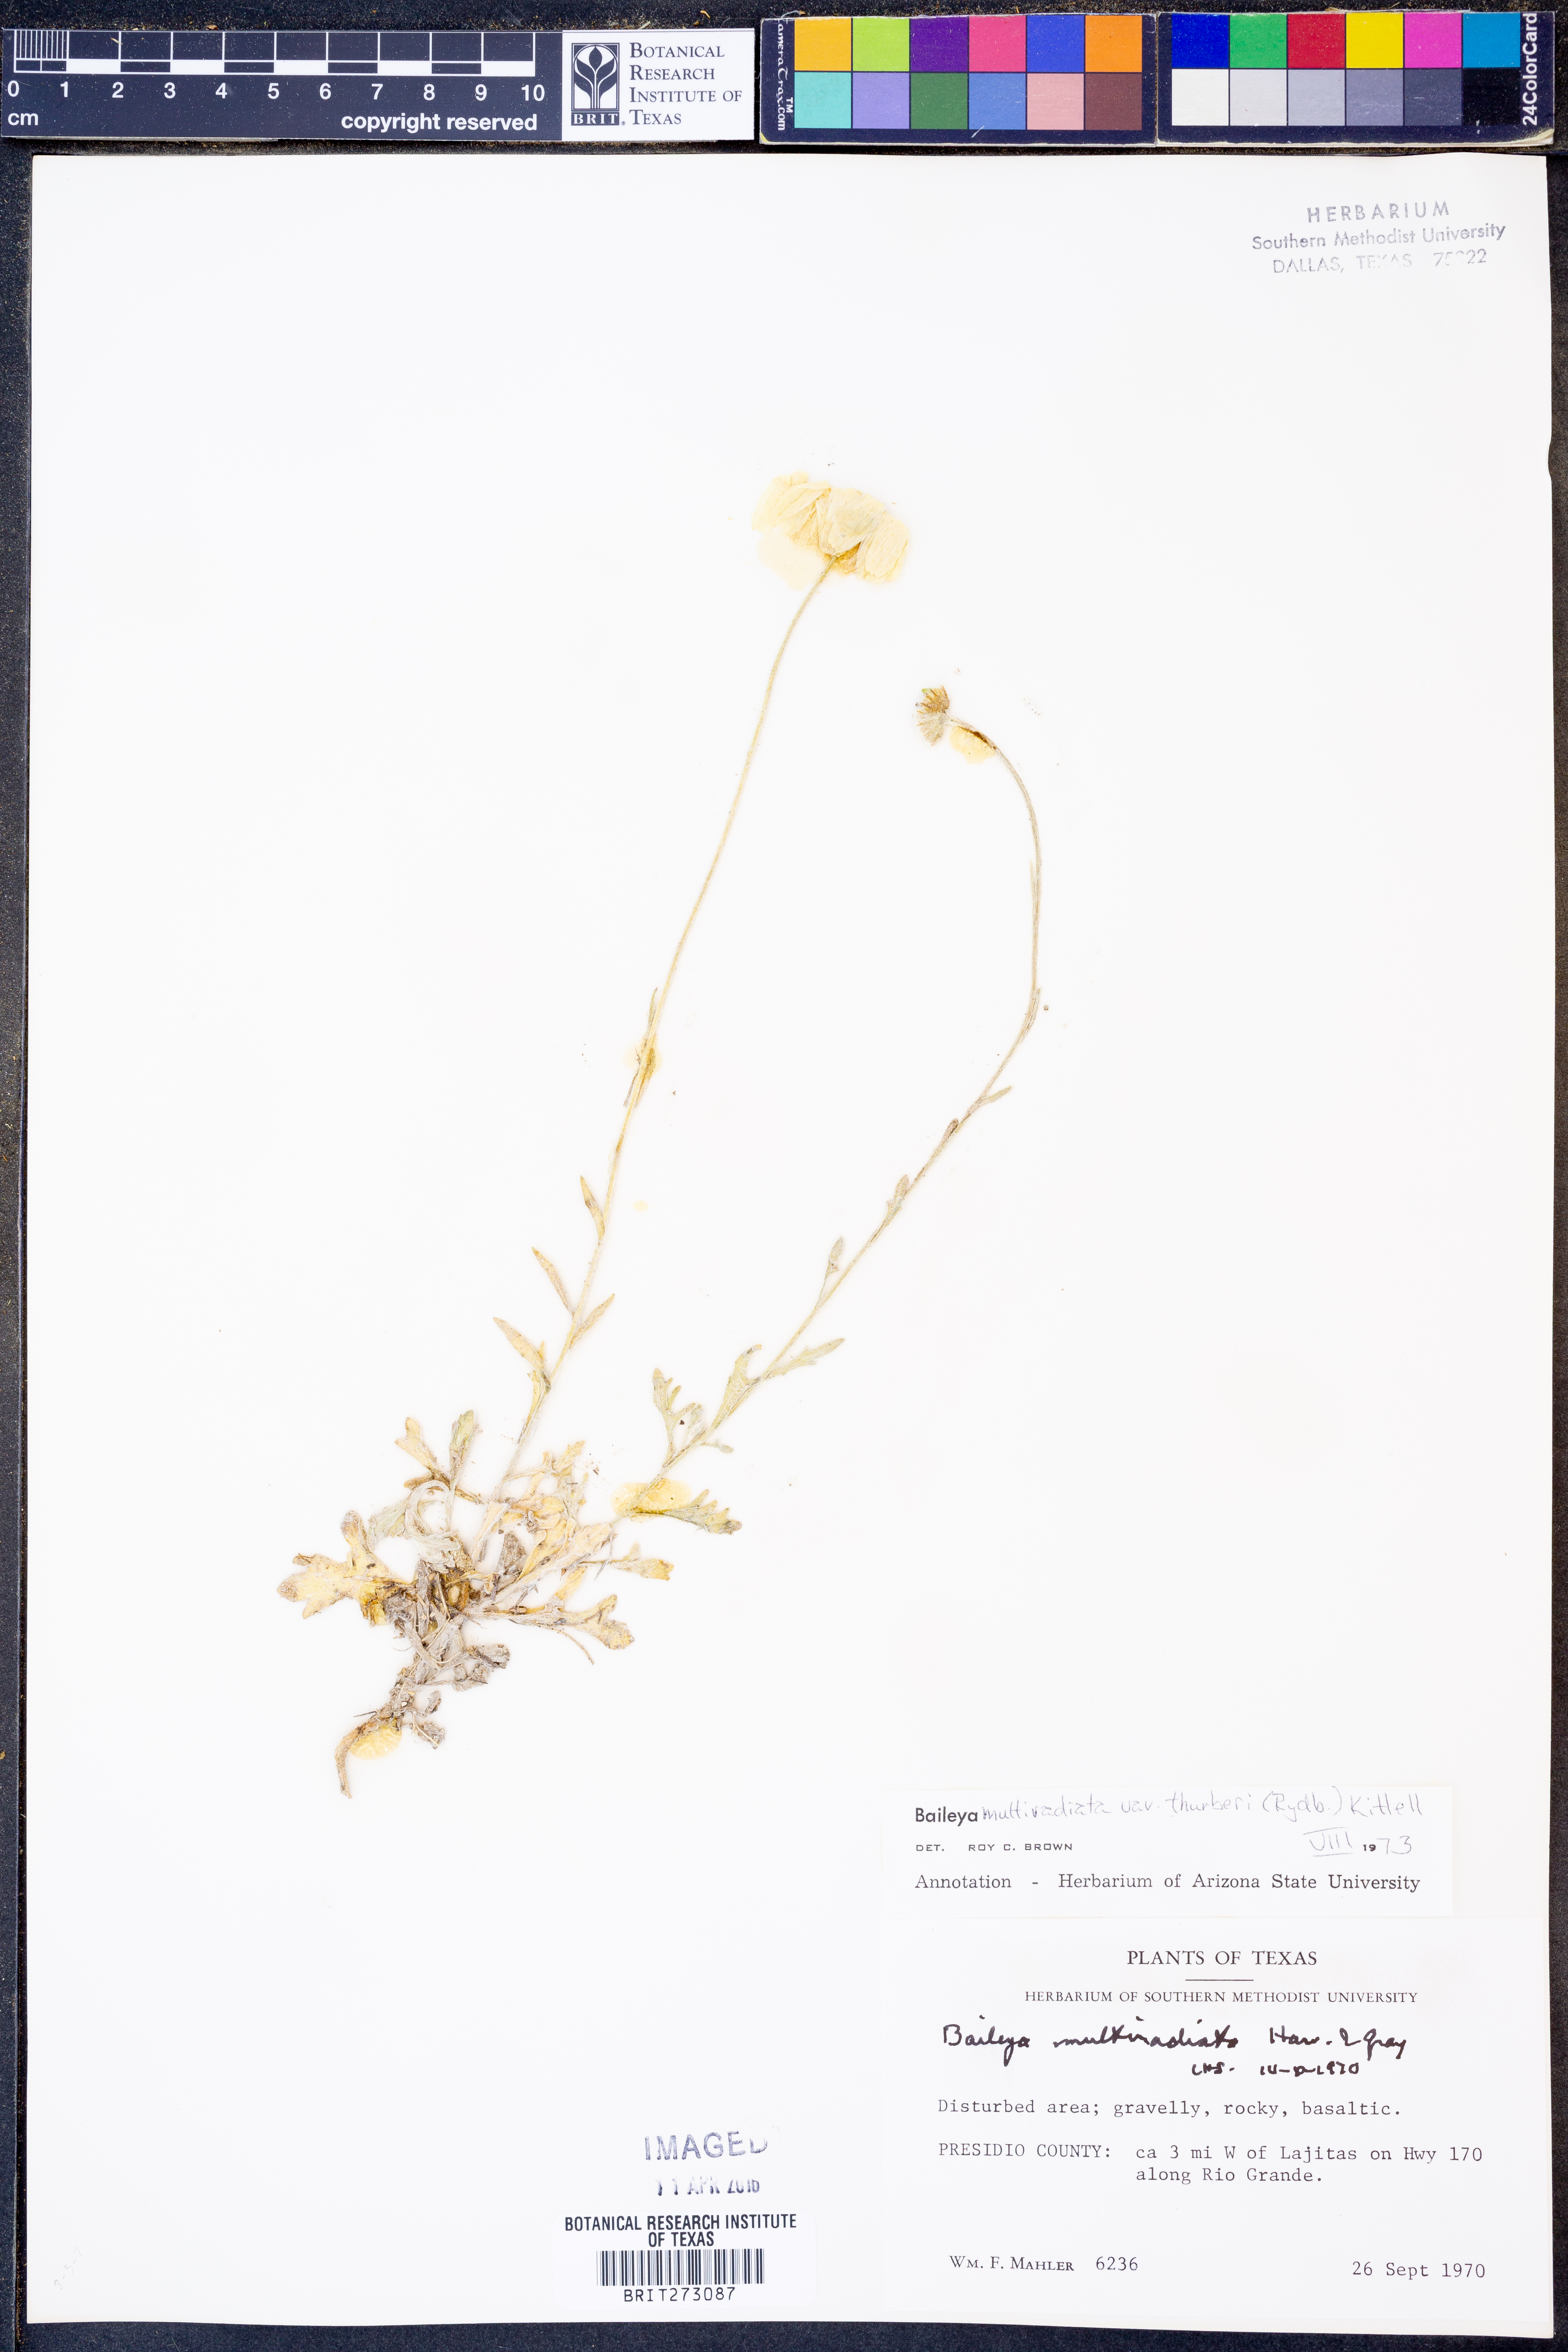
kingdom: Plantae
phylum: Tracheophyta
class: Magnoliopsida
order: Asterales
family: Asteraceae
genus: Baileya
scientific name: Baileya multiradiata
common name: Desert-marigold
